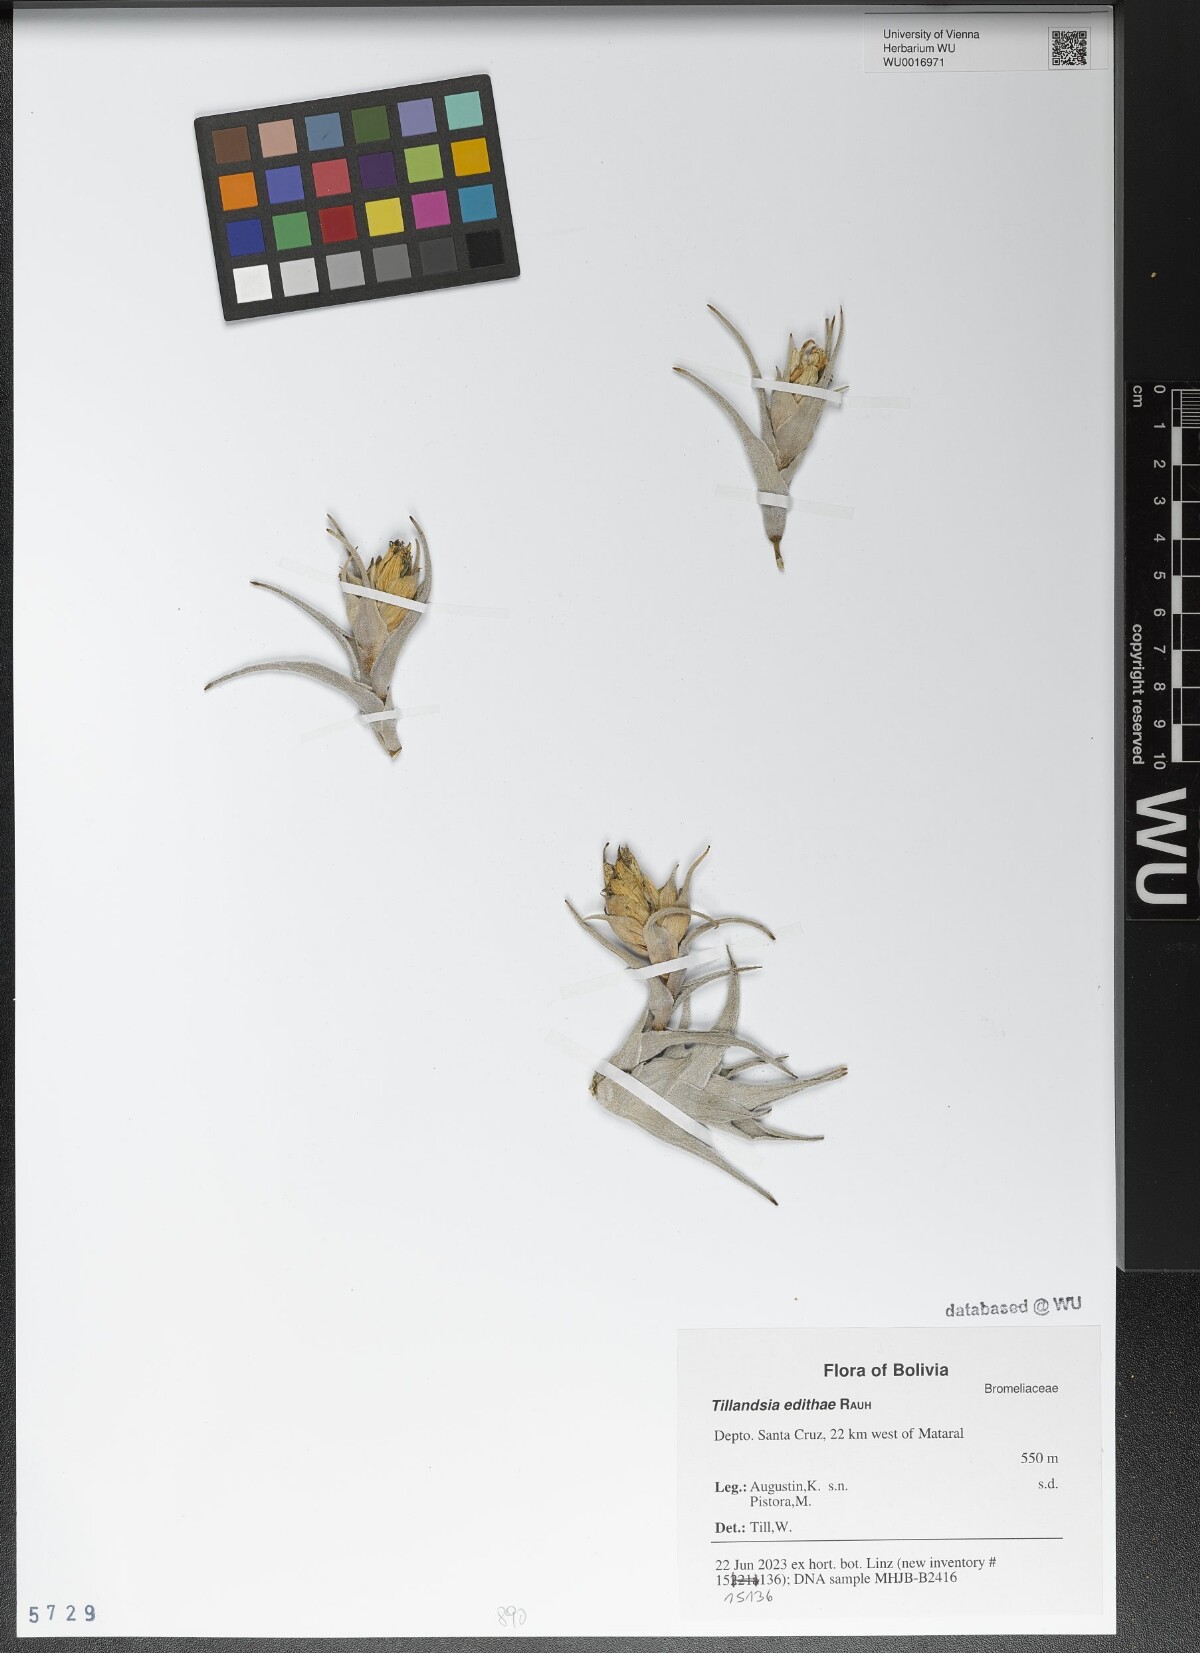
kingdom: Plantae
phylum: Tracheophyta
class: Liliopsida
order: Poales
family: Bromeliaceae
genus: Tillandsia
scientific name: Tillandsia edithae
